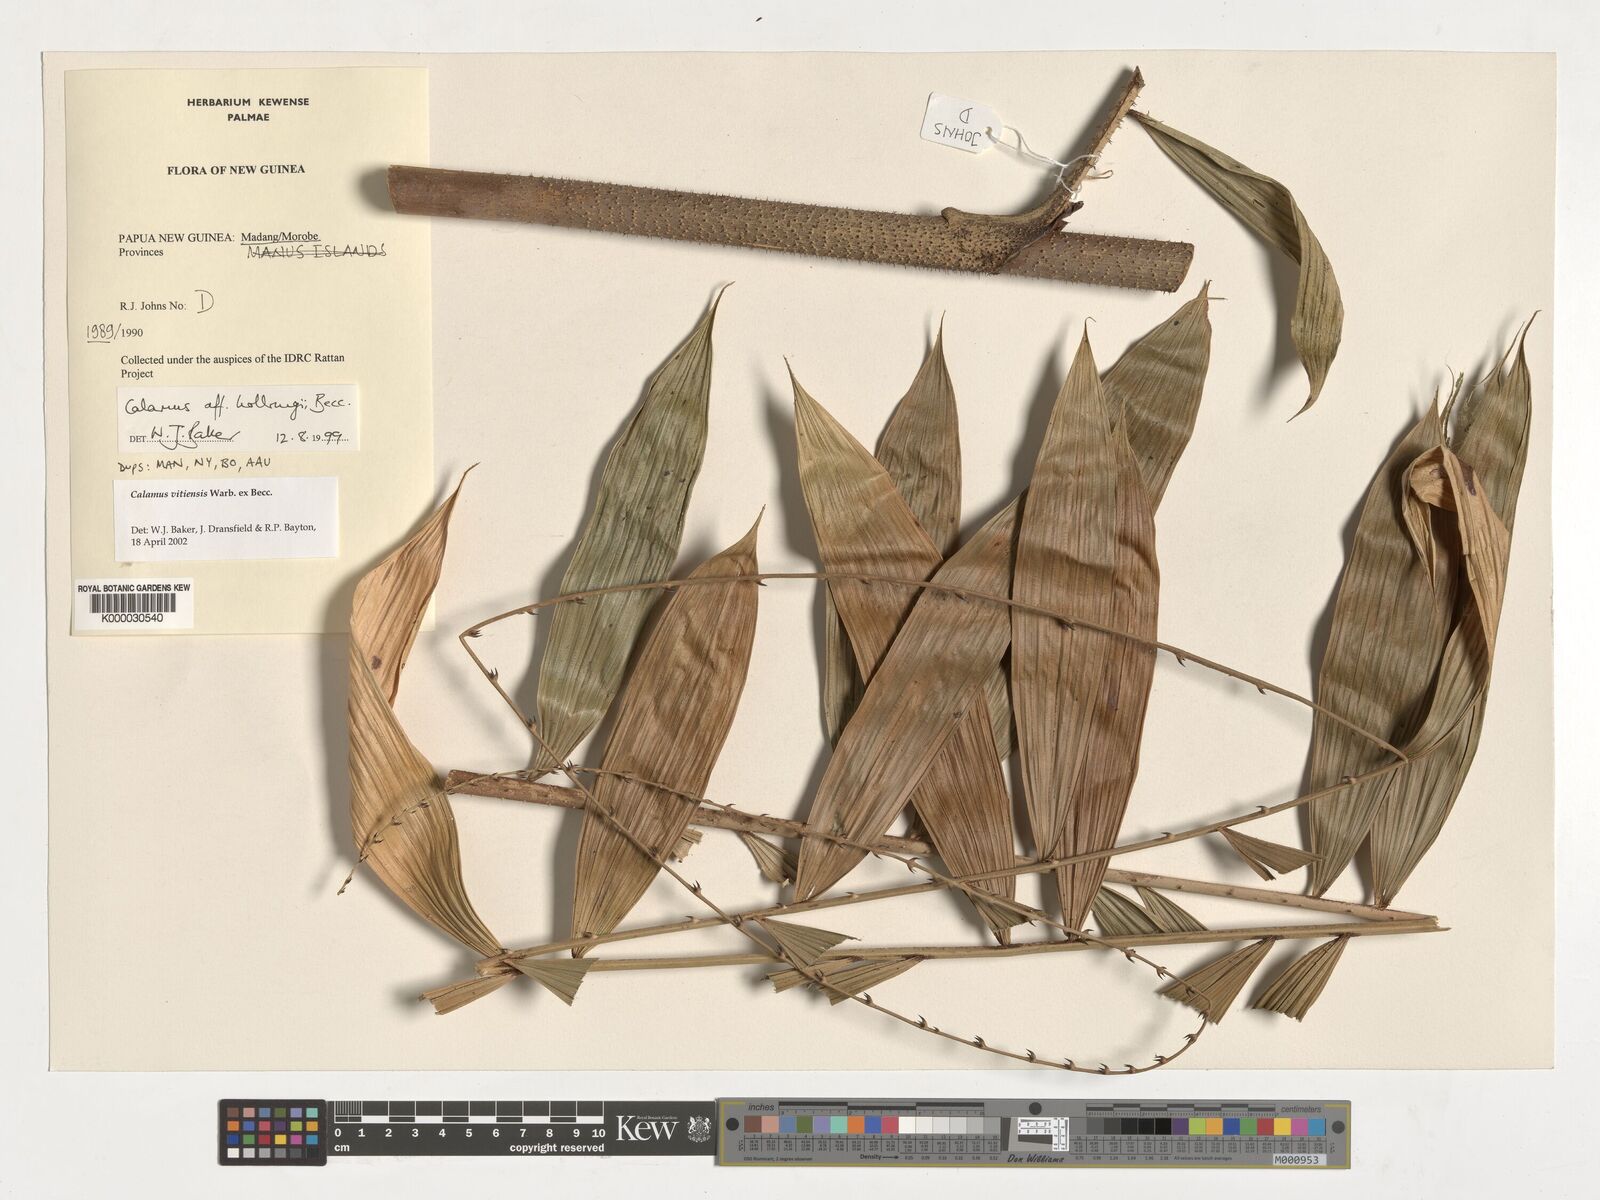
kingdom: Plantae
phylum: Tracheophyta
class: Liliopsida
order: Arecales
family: Arecaceae
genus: Calamus
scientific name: Calamus vitiensis
